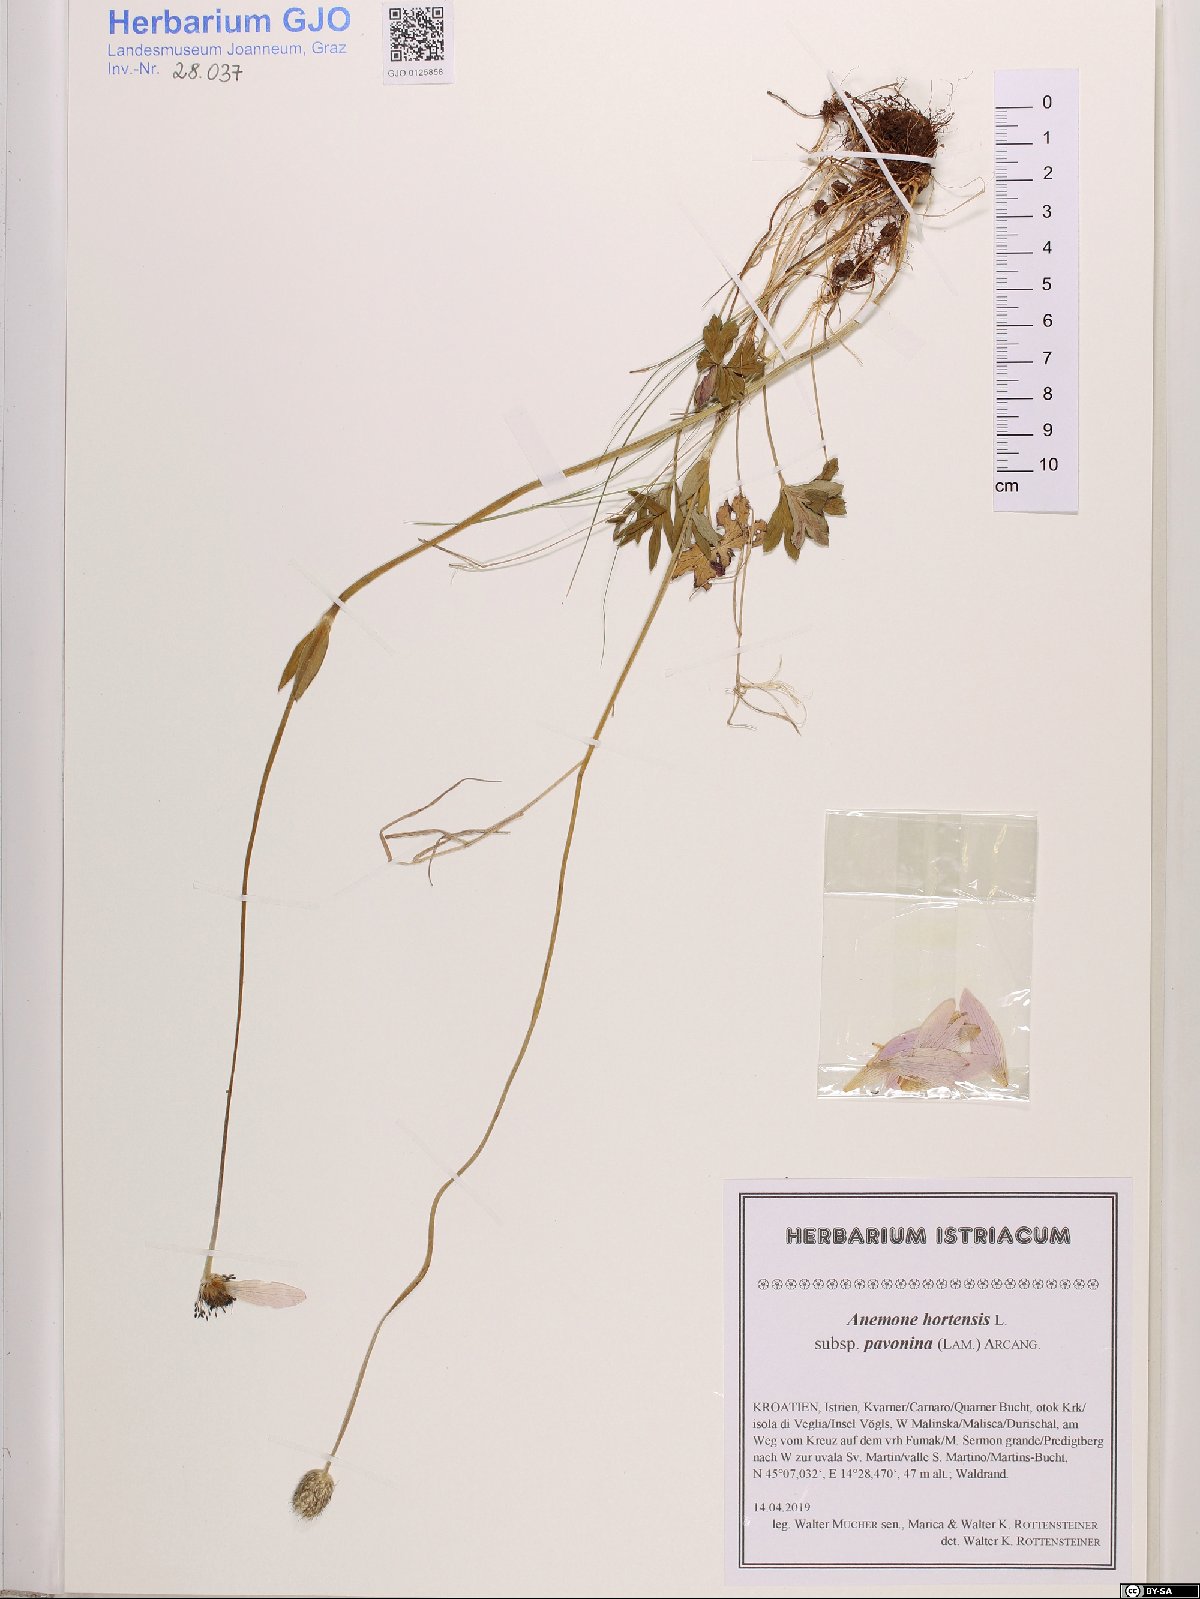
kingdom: Plantae
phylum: Tracheophyta
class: Magnoliopsida
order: Ranunculales
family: Ranunculaceae
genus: Anemone
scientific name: Anemone pavonina
